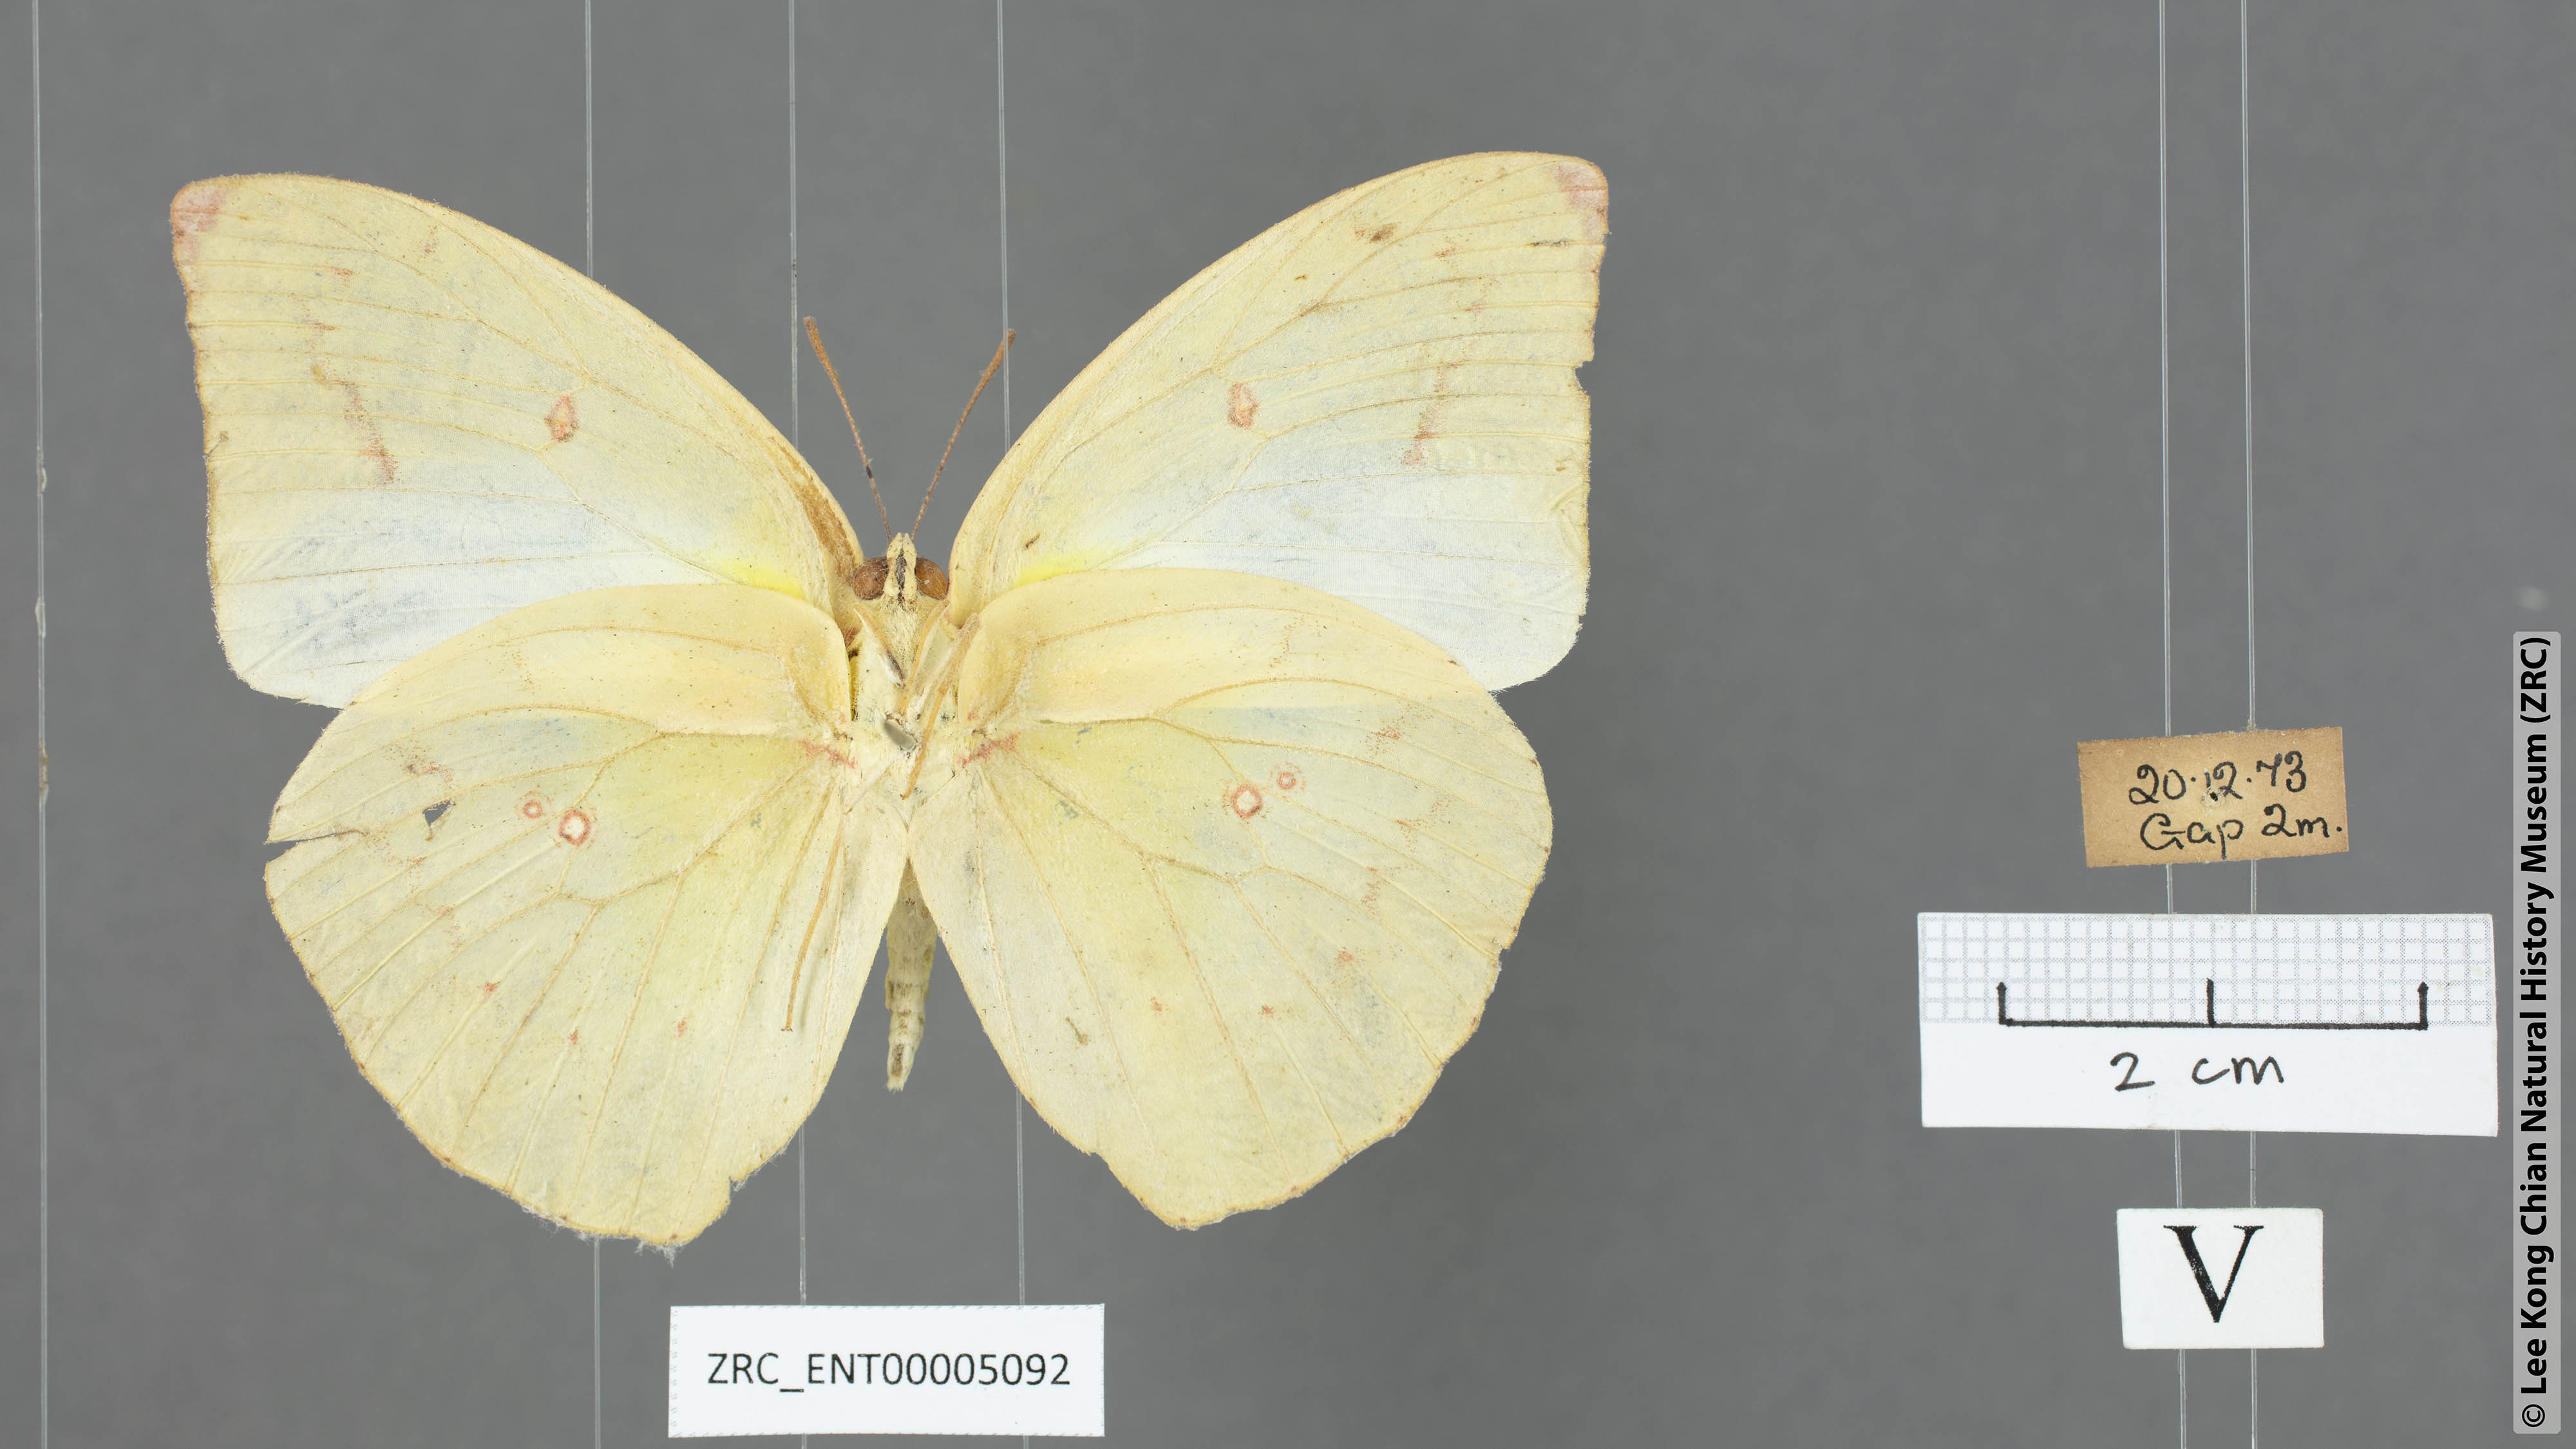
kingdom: Animalia
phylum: Arthropoda
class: Insecta
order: Lepidoptera
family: Pieridae
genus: Catopsilia
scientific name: Catopsilia pomona
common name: Common emigrant
